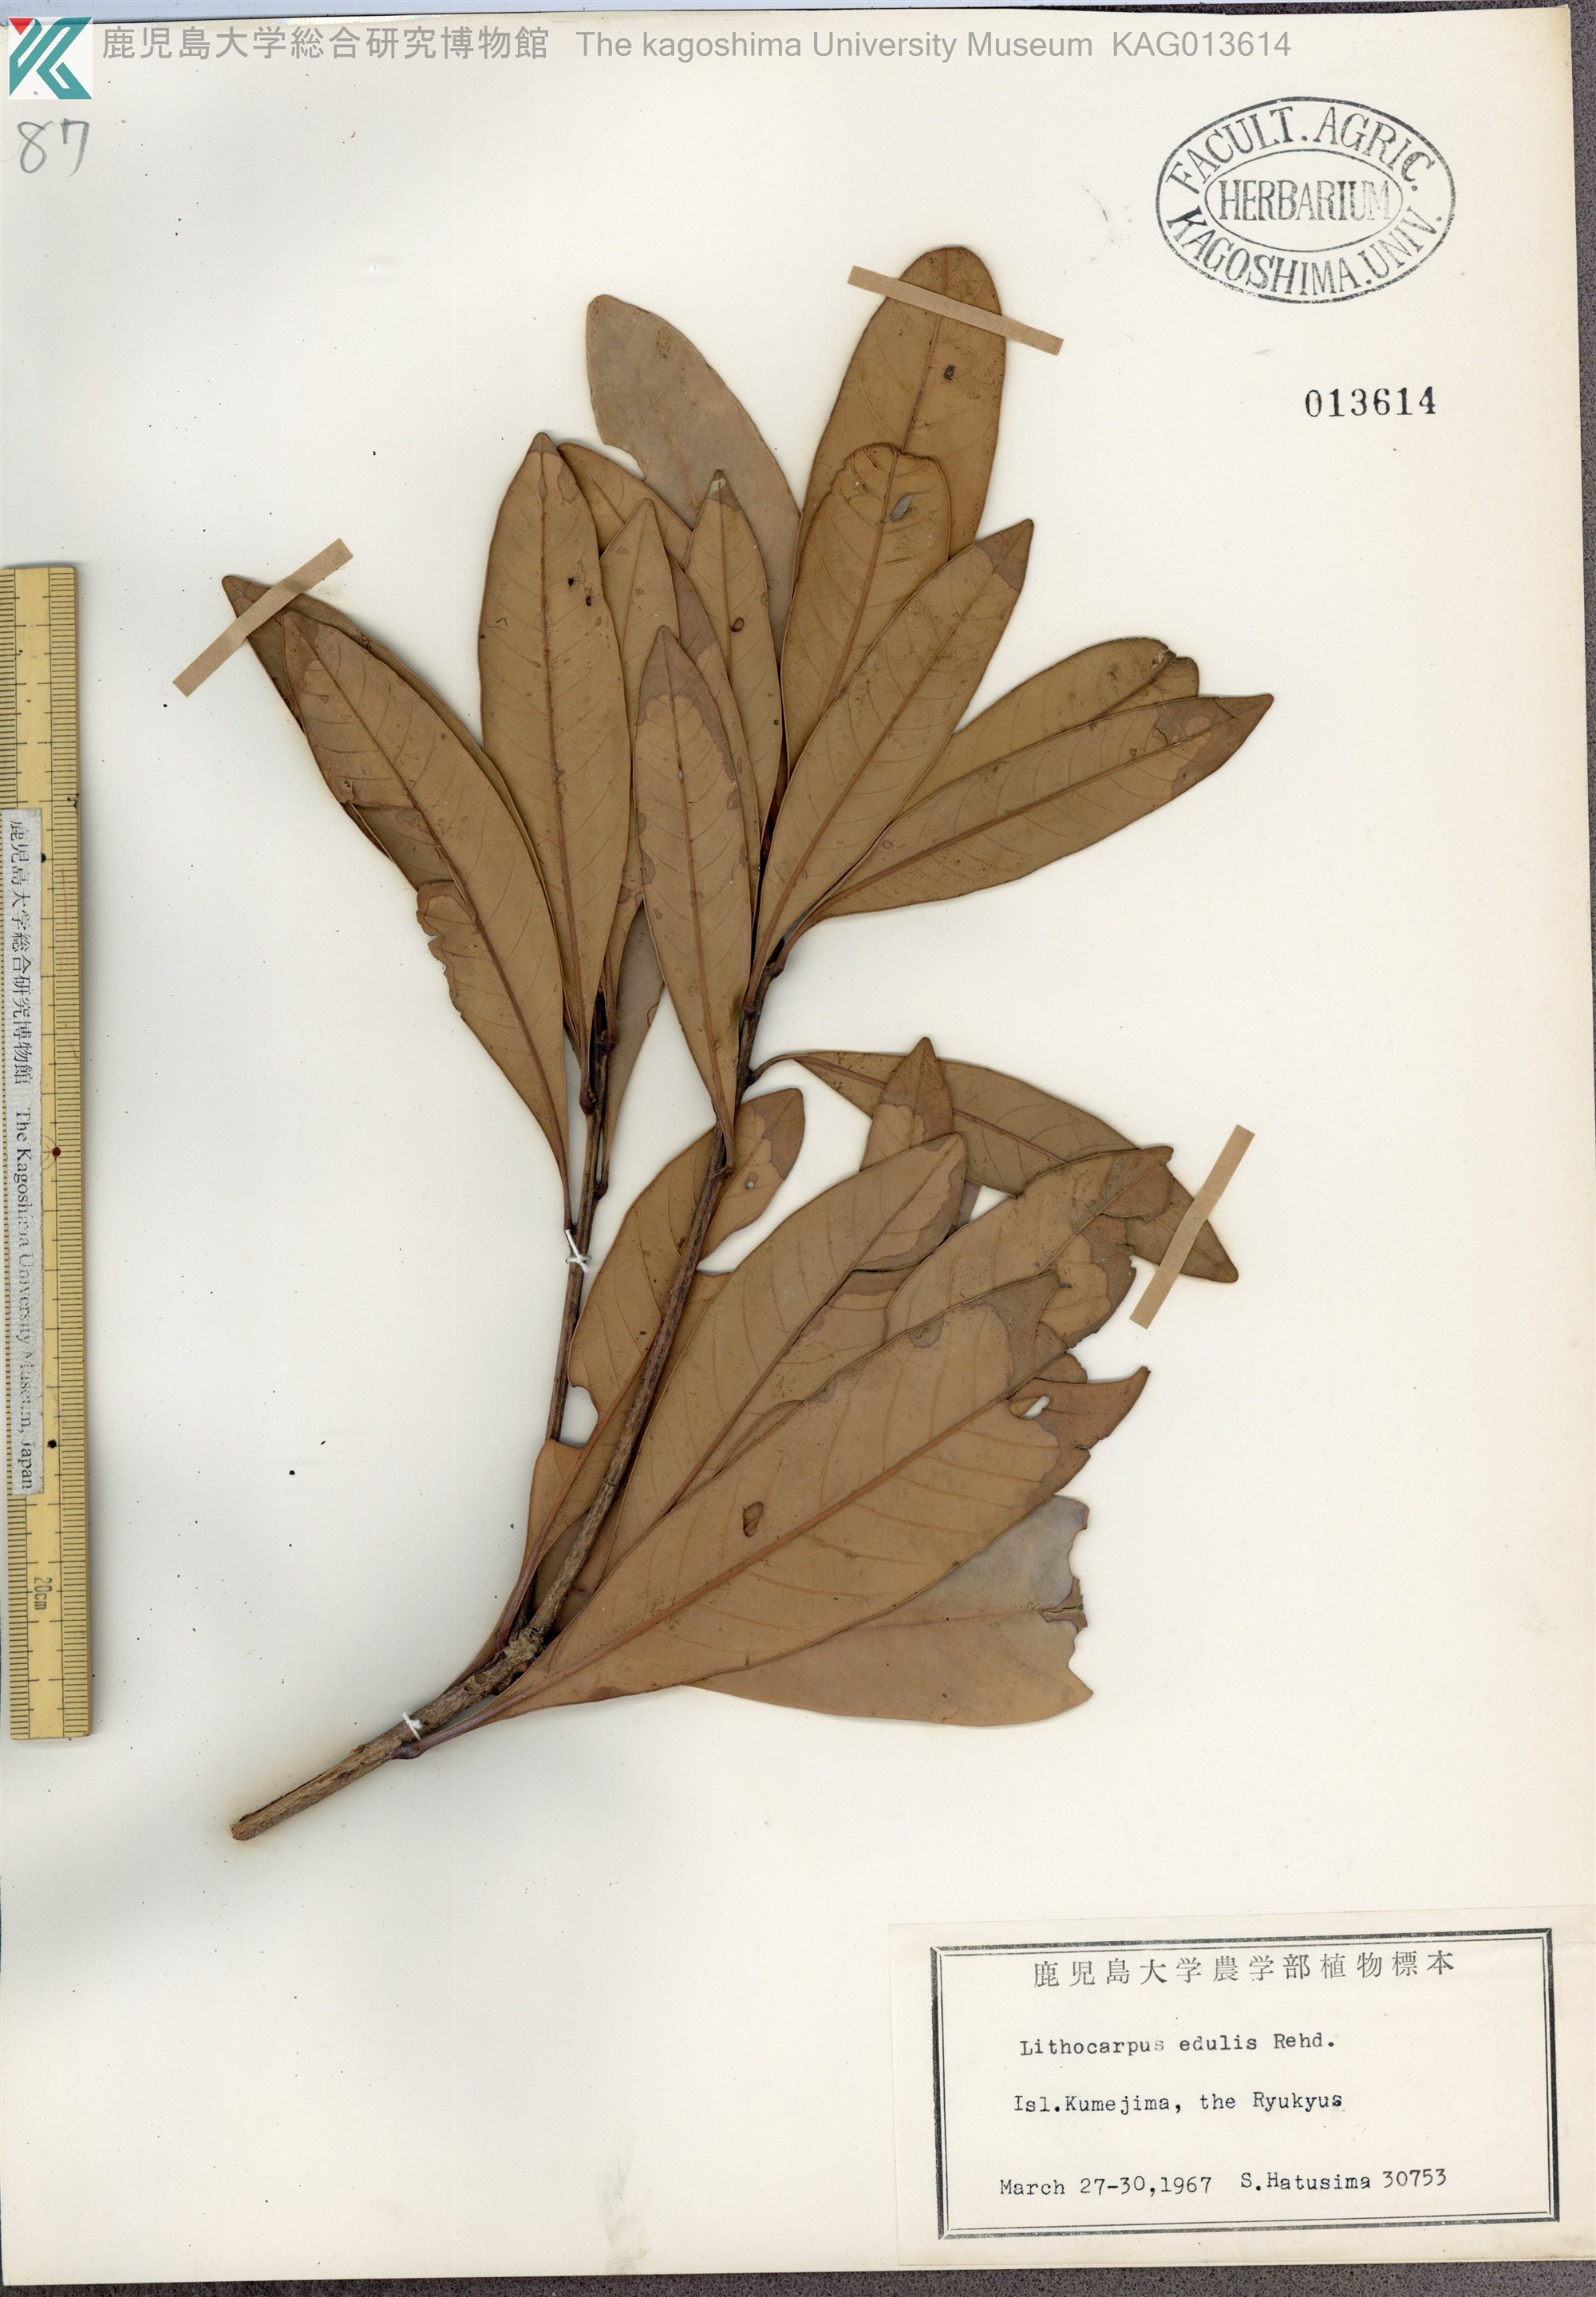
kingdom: Plantae
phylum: Tracheophyta
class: Magnoliopsida
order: Fagales
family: Fagaceae
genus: Lithocarpus
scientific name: Lithocarpus edulis
